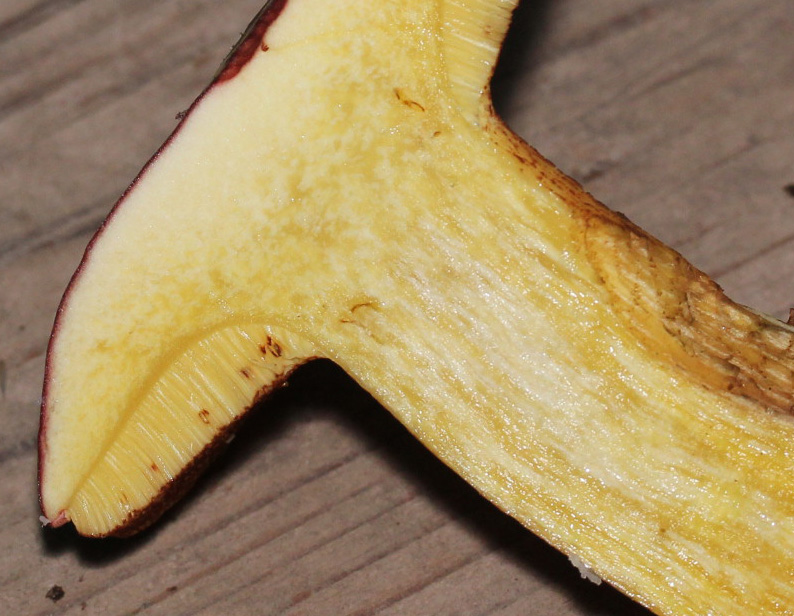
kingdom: Fungi
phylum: Basidiomycota
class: Agaricomycetes
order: Boletales
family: Boletaceae
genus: Xerocomellus
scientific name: Xerocomellus pruinatus
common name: dugget rørhat
